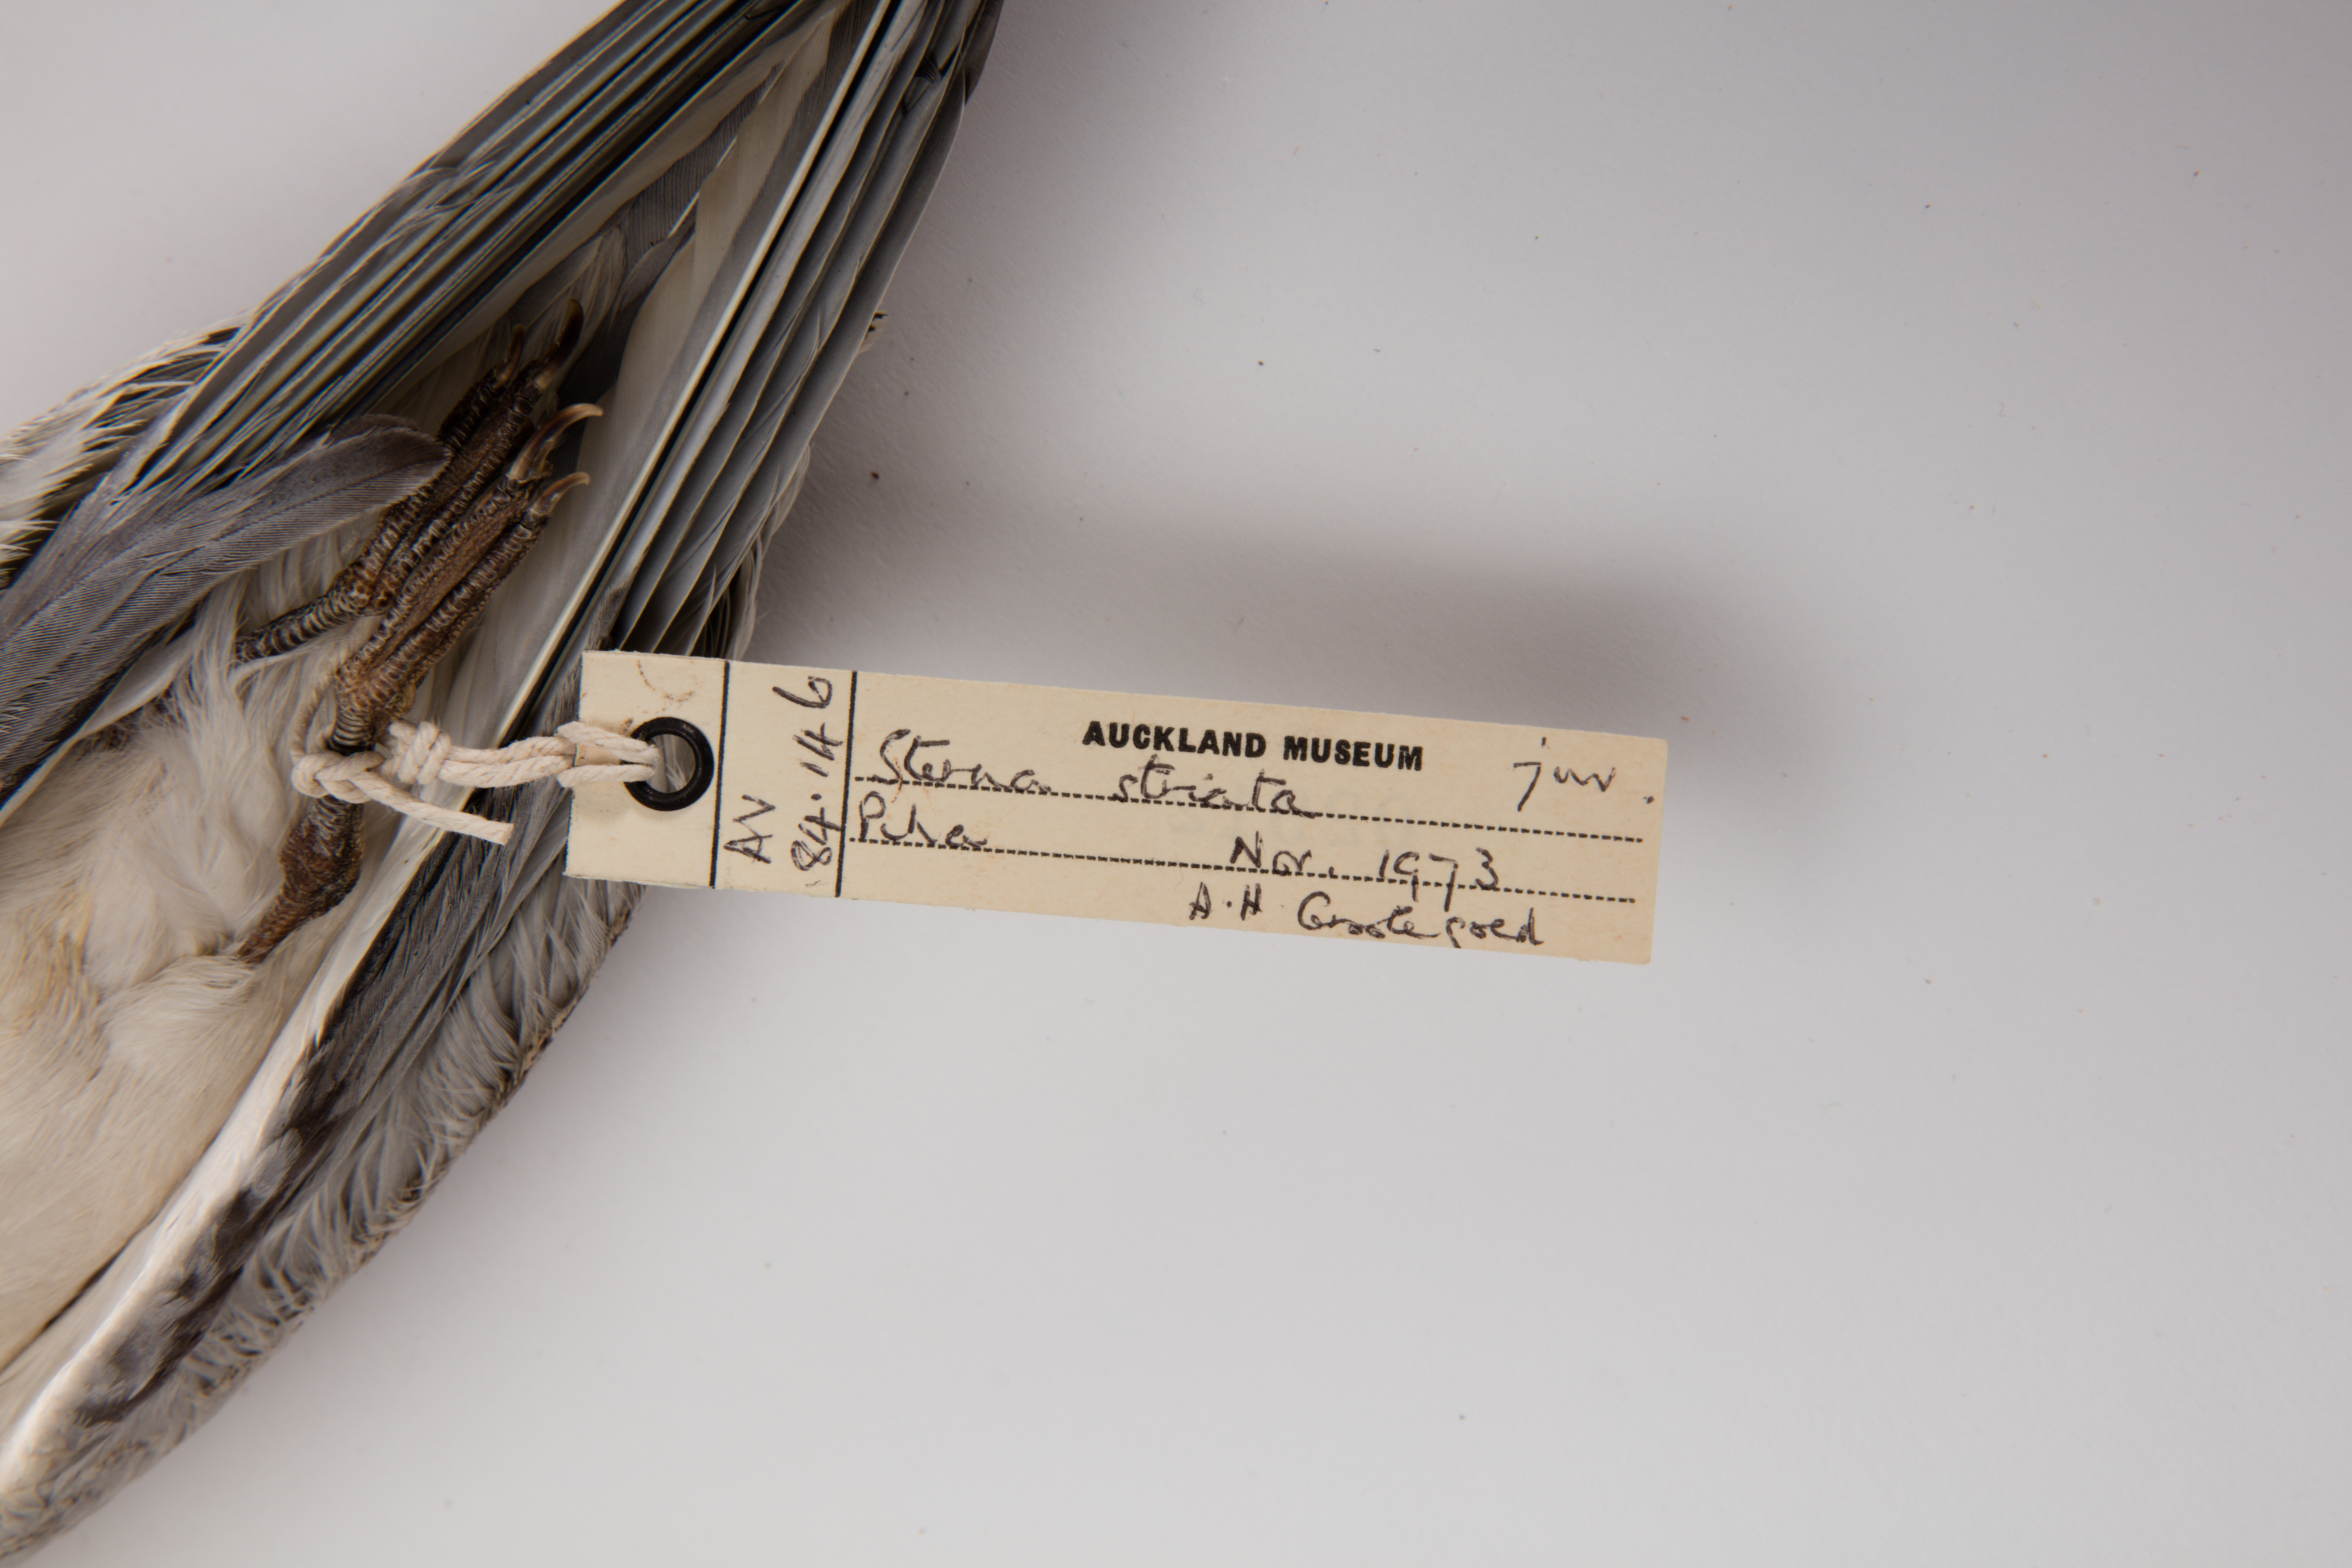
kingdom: Animalia
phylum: Chordata
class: Aves
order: Charadriiformes
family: Laridae
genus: Sterna
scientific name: Sterna striata
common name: White-fronted tern
